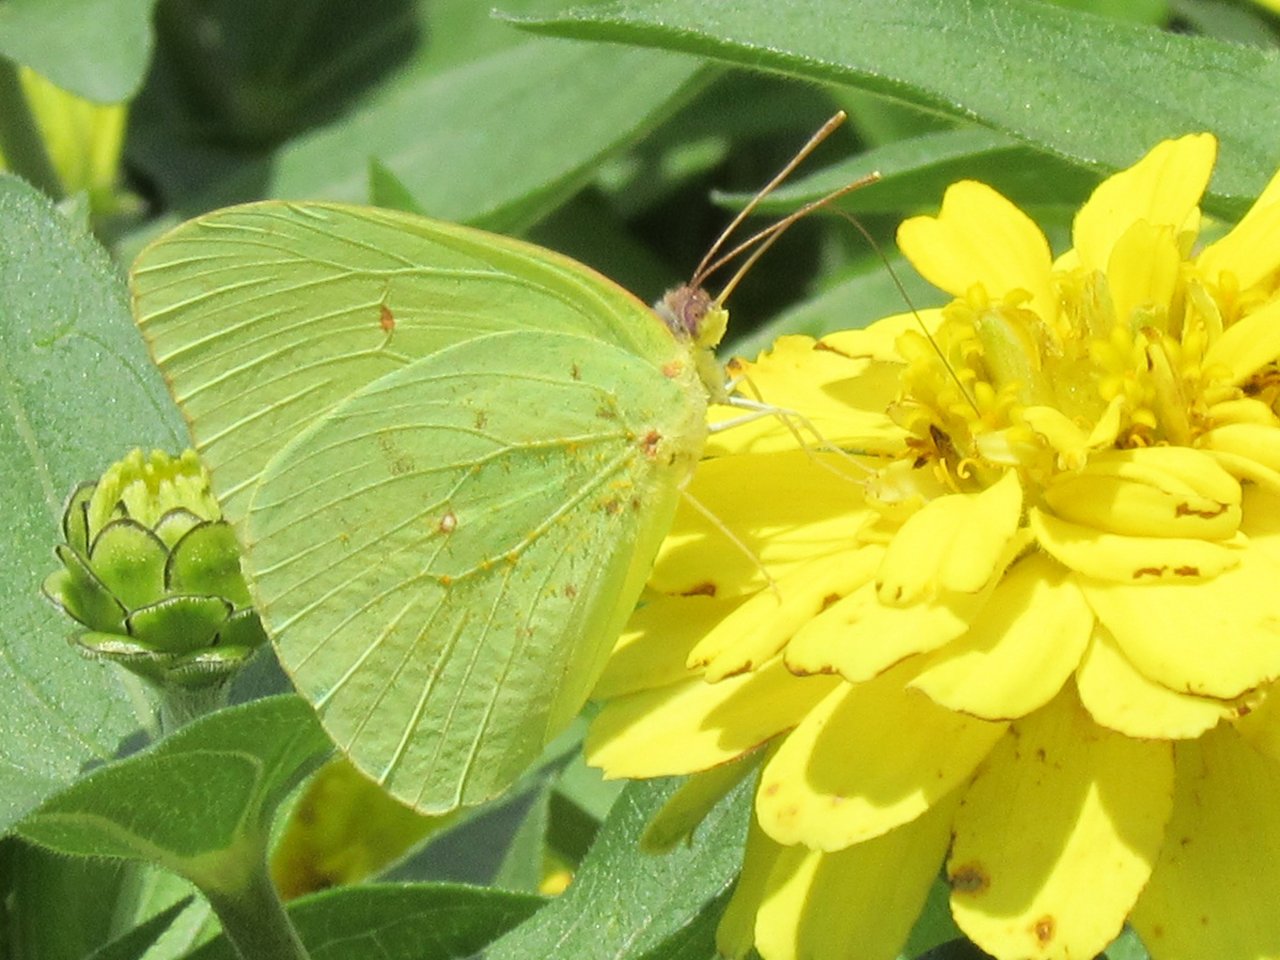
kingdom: Animalia
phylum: Arthropoda
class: Insecta
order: Lepidoptera
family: Pieridae
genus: Phoebis
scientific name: Phoebis sennae
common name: Cloudless Sulphur
